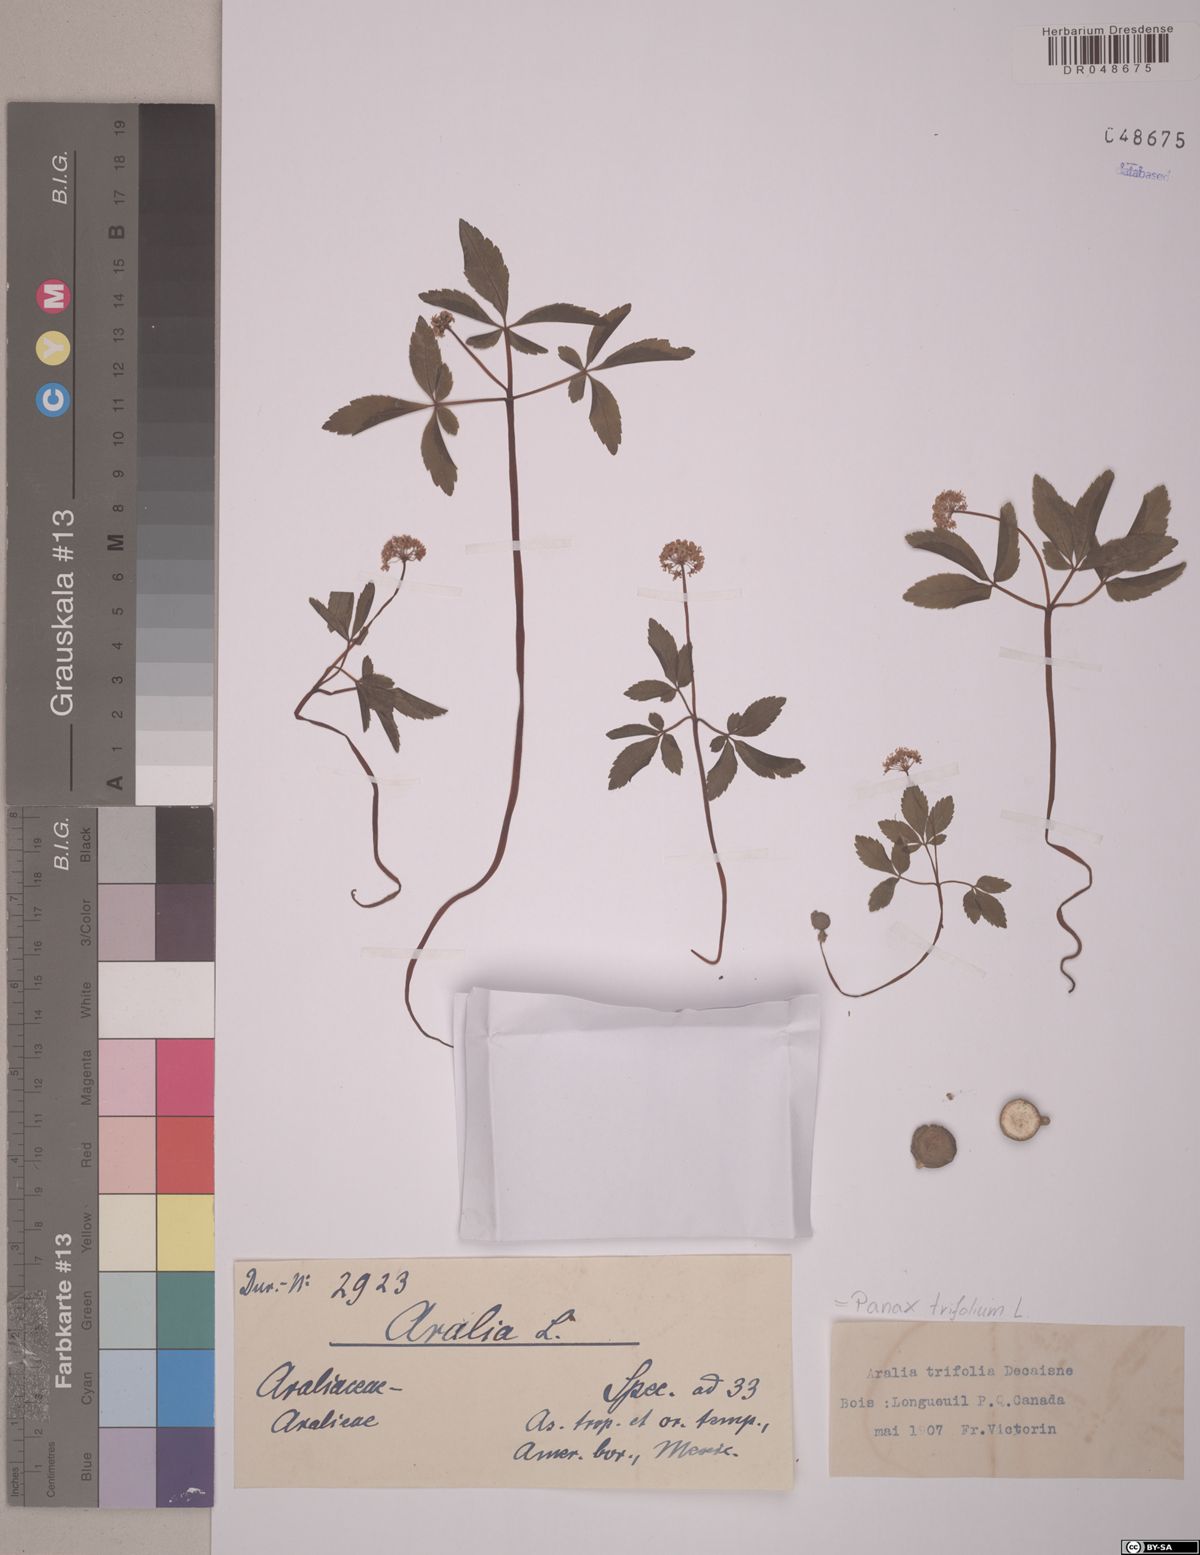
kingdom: Plantae
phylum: Tracheophyta
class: Magnoliopsida
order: Apiales
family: Araliaceae
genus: Panax
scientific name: Panax trifolius
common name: Dwarf ginseng
